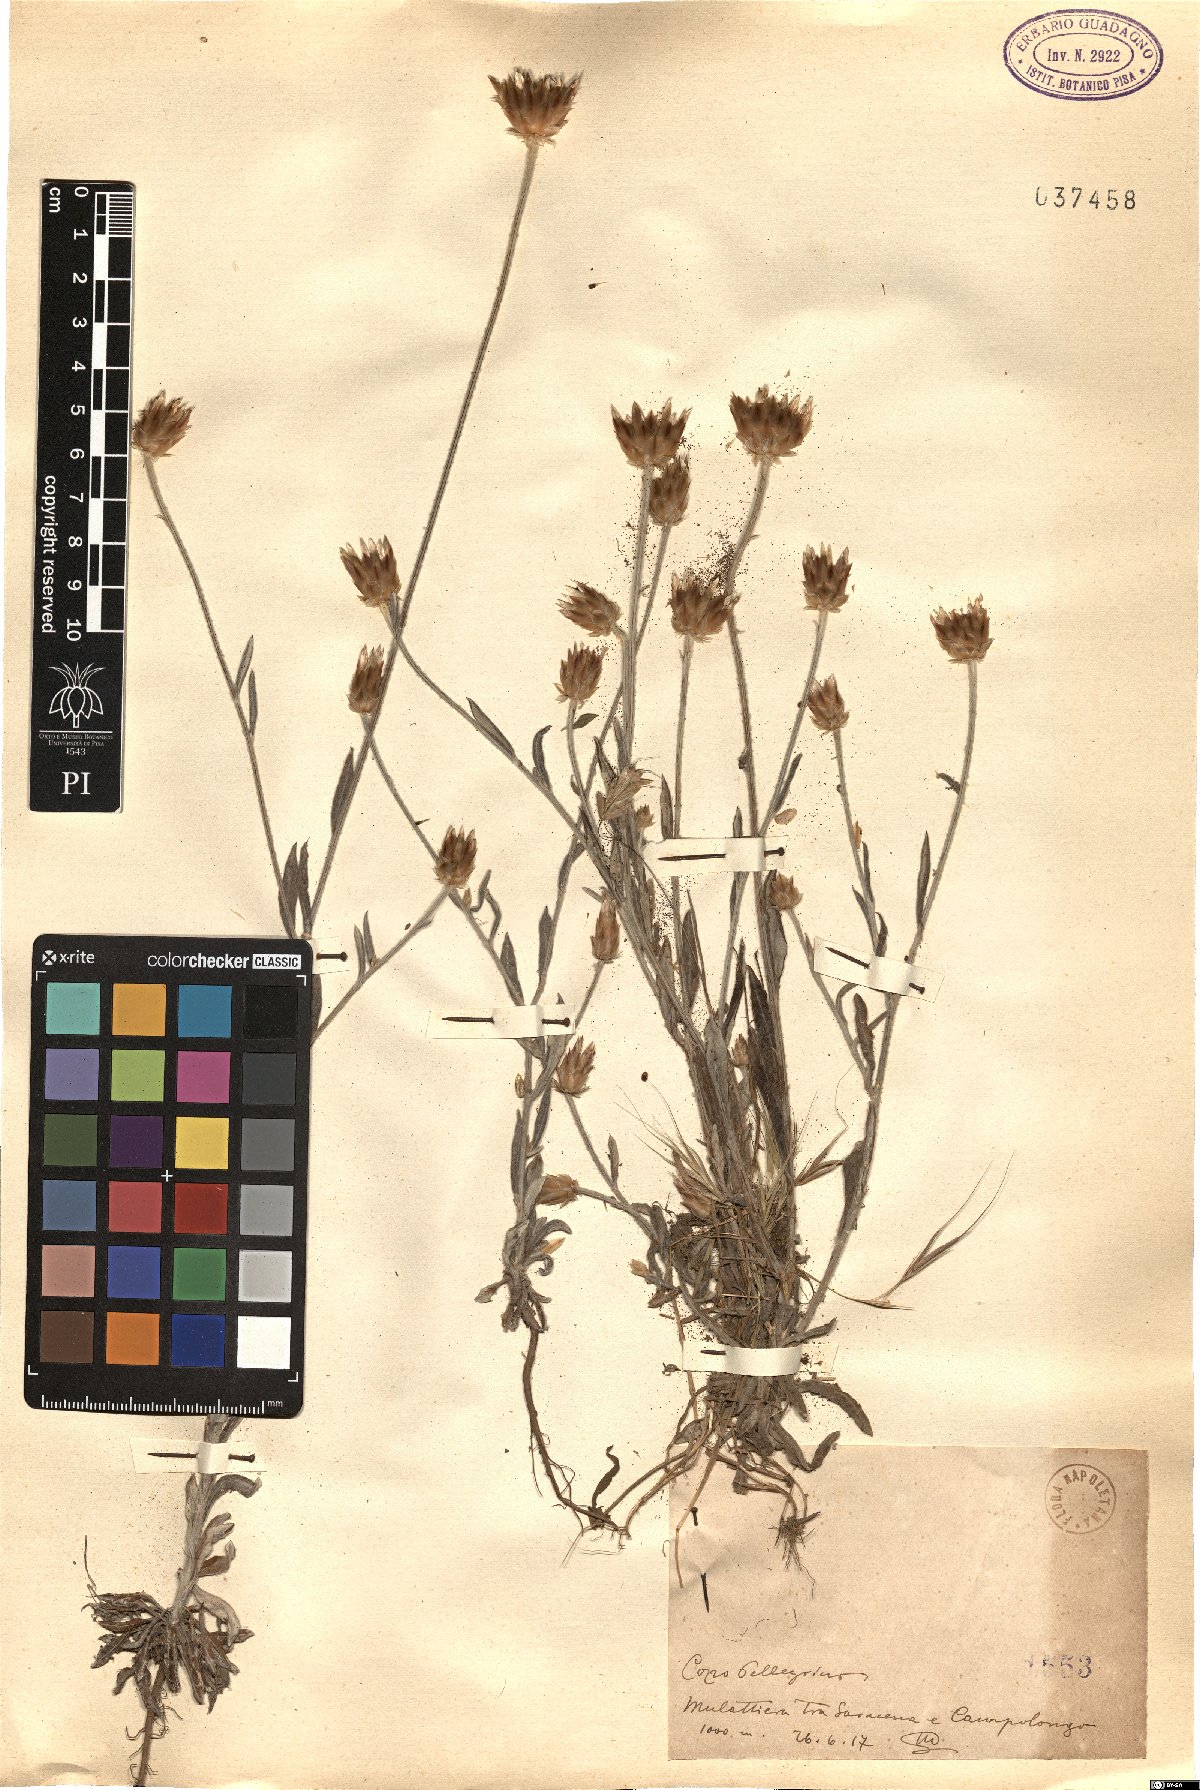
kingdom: Plantae
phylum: Tracheophyta
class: Magnoliopsida
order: Asterales
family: Asteraceae
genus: Xeranthemum
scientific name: Xeranthemum
